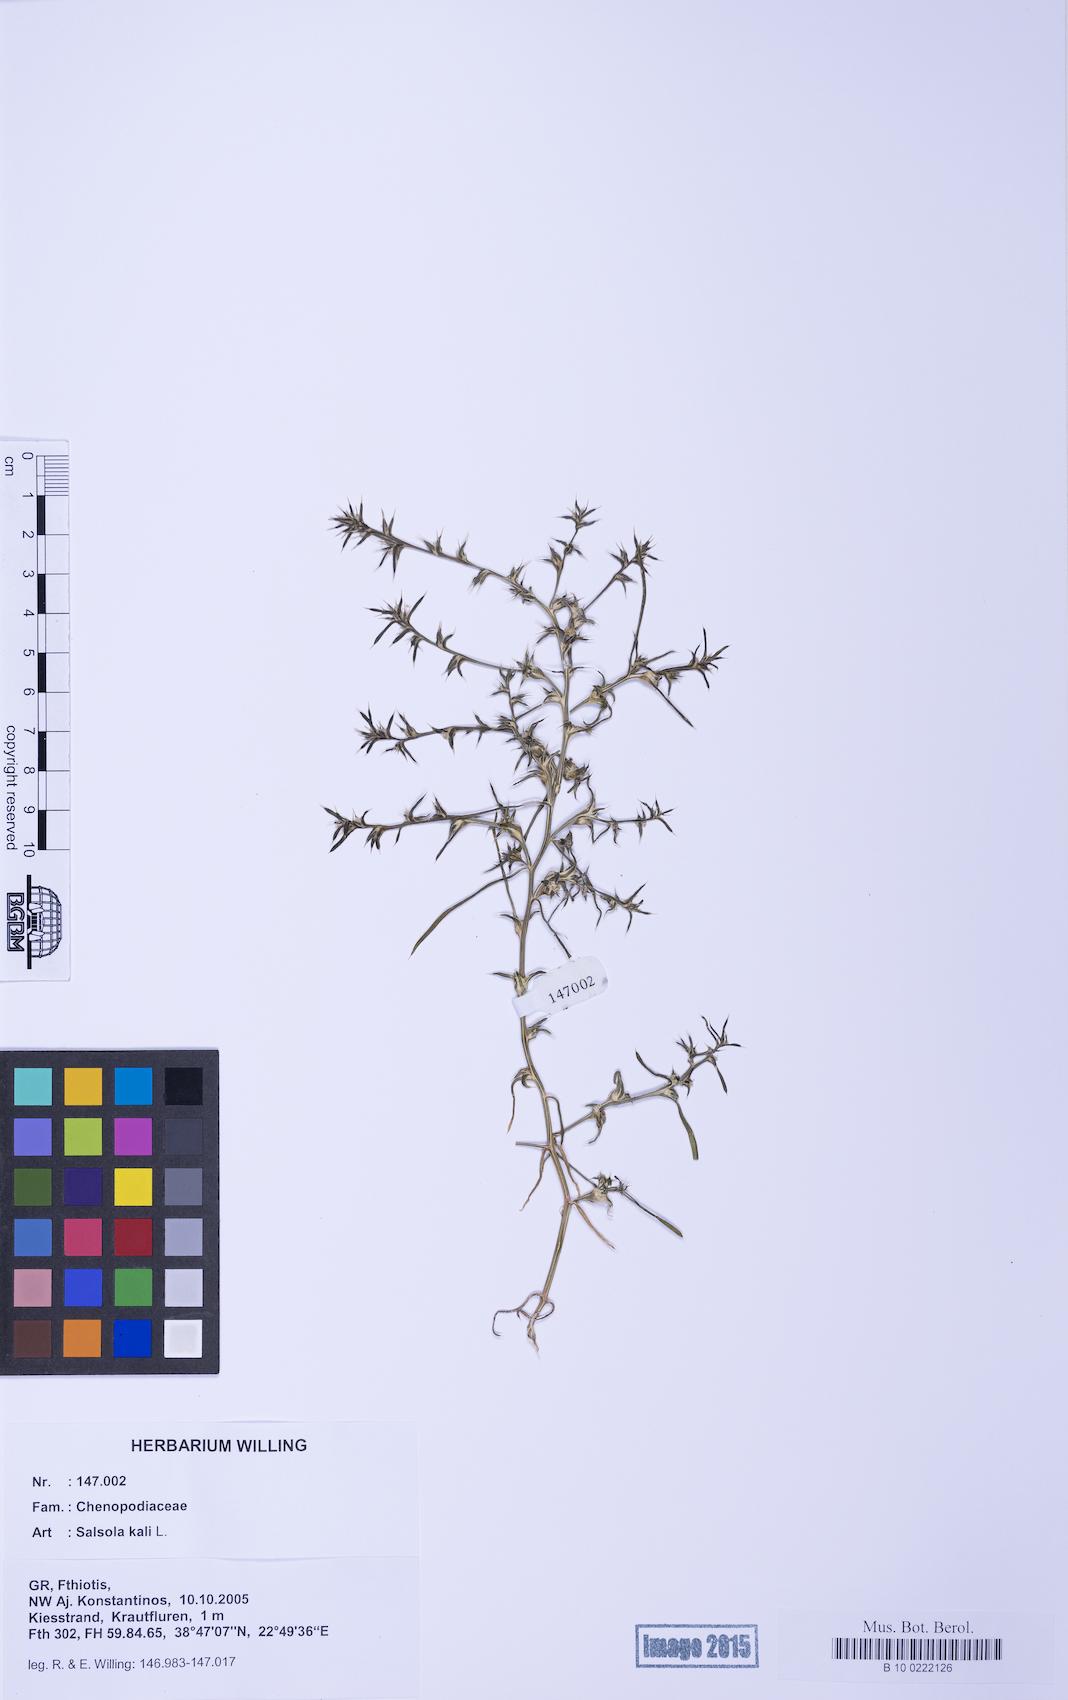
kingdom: Plantae
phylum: Tracheophyta
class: Magnoliopsida
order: Caryophyllales
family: Amaranthaceae
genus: Salsola
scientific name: Salsola kali
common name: Saltwort
